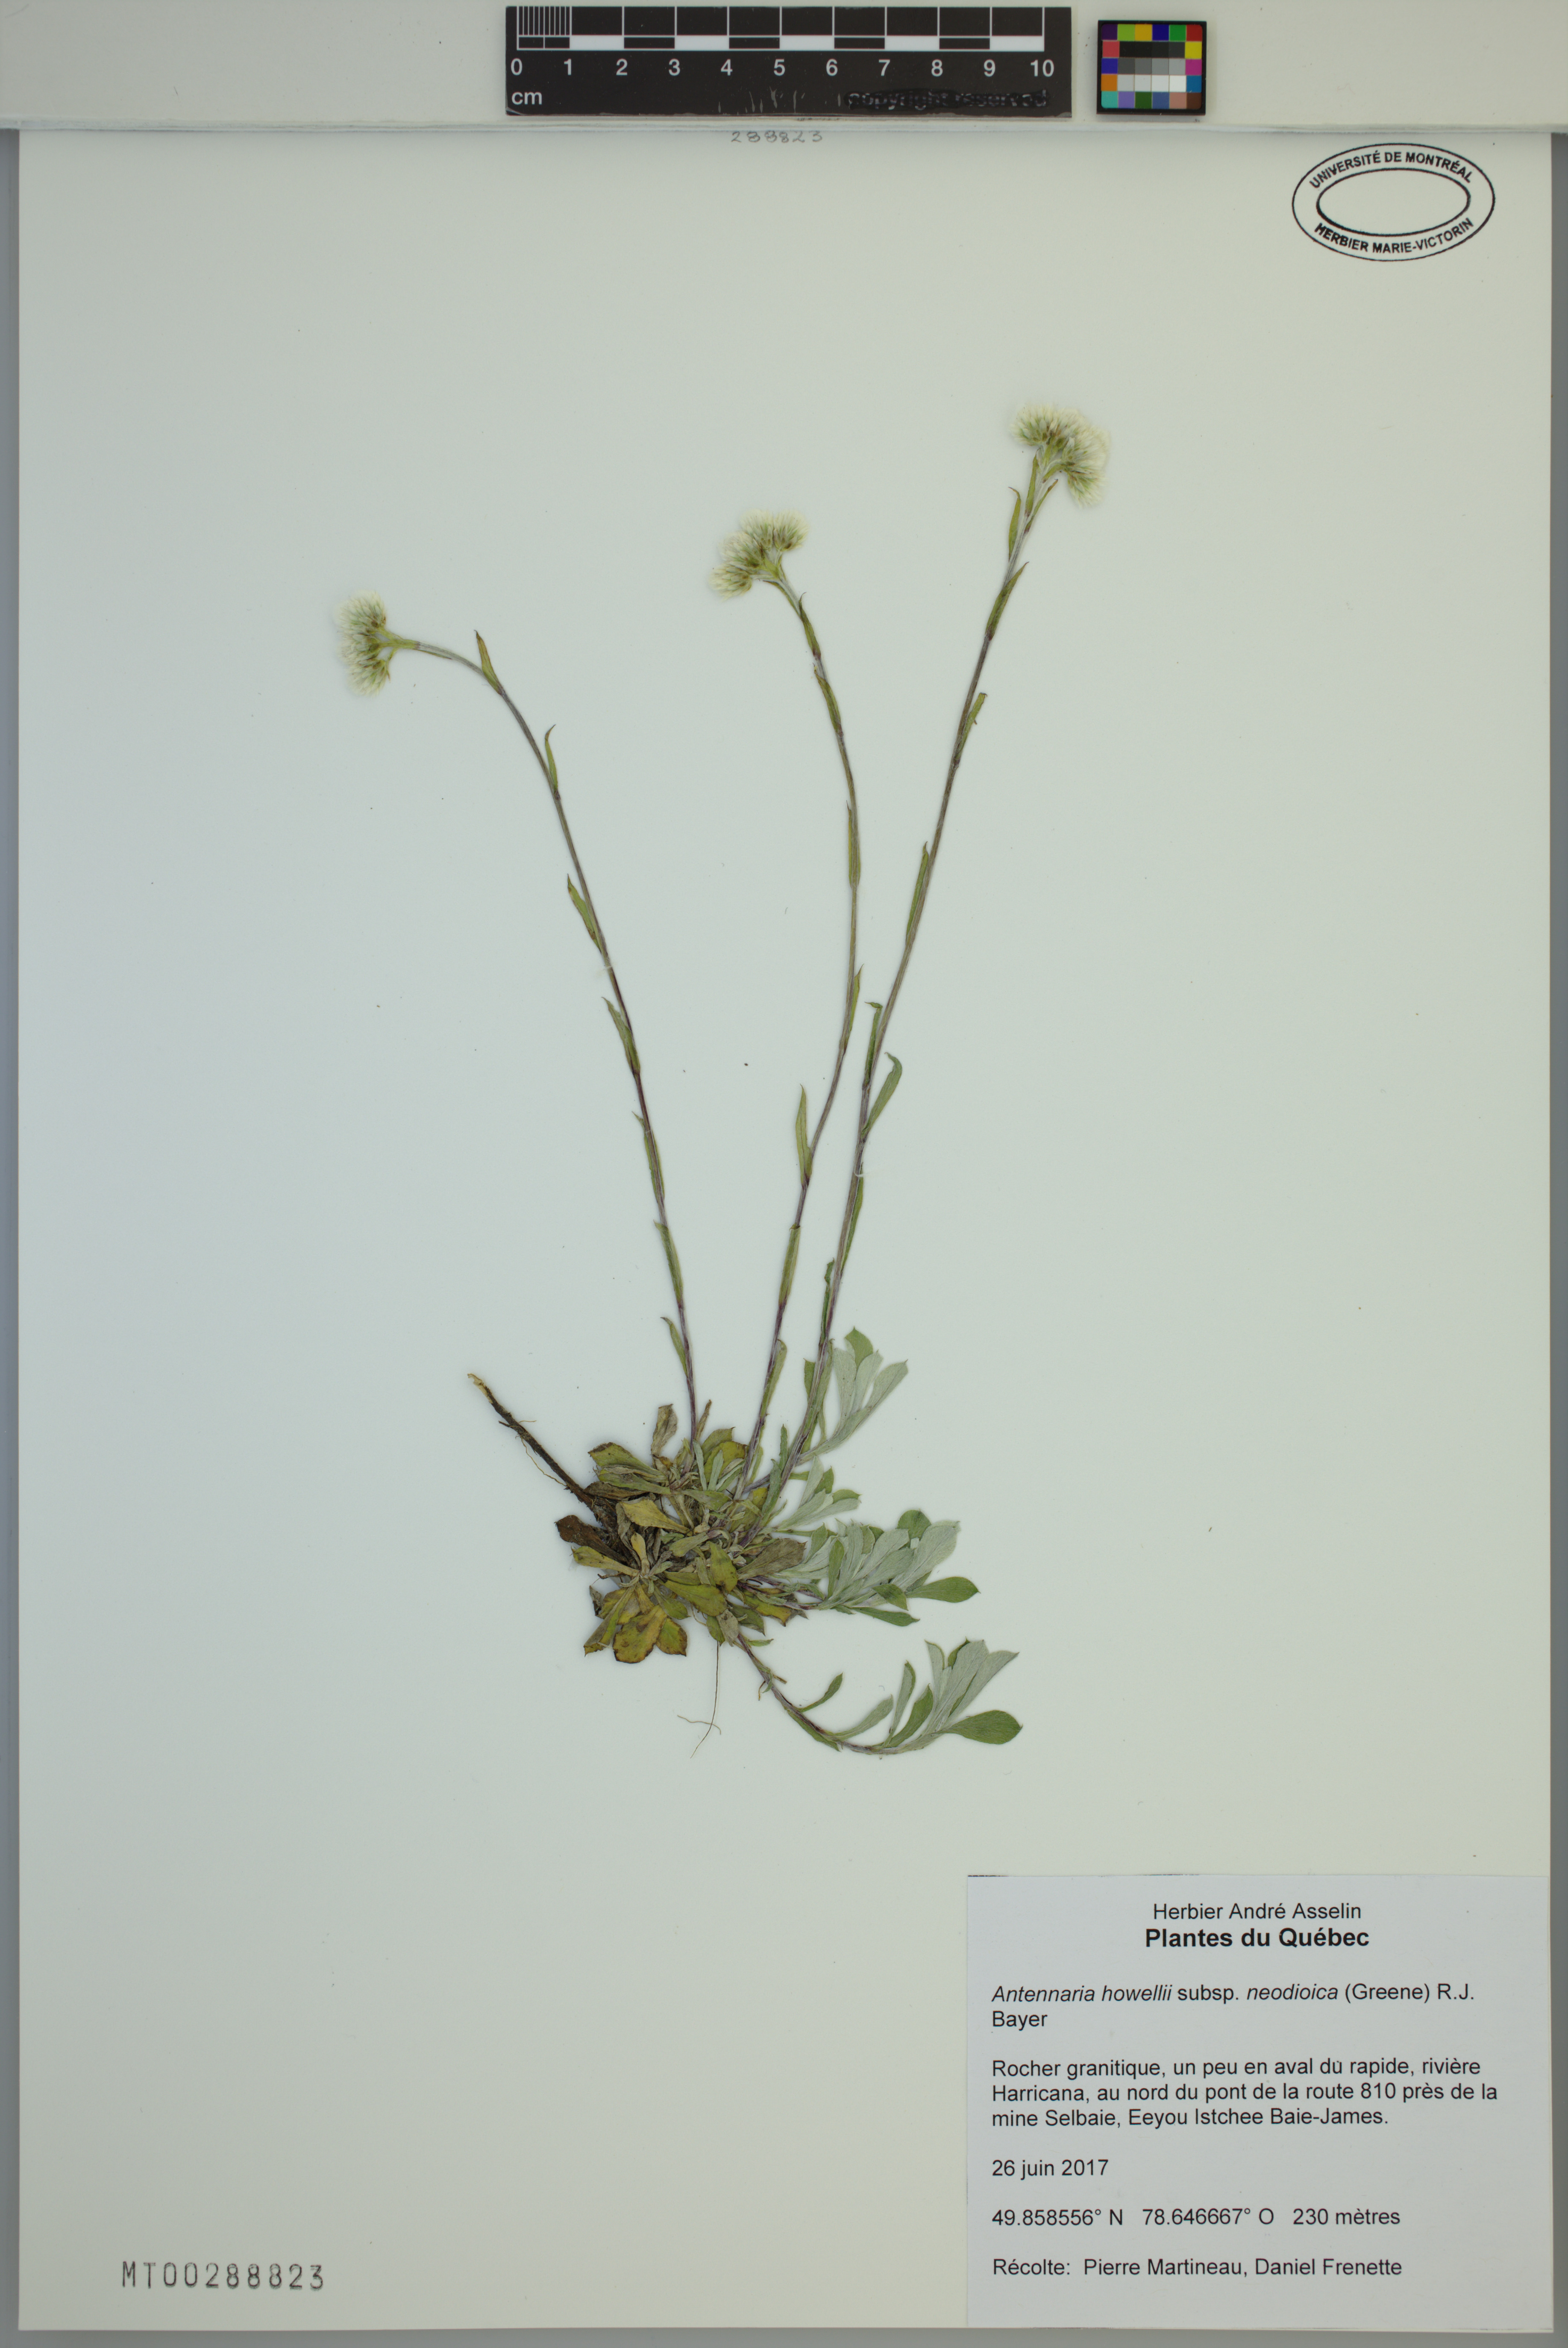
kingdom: Plantae
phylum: Tracheophyta
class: Magnoliopsida
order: Asterales
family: Asteraceae
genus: Antennaria
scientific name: Antennaria howellii
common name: Howell's pussytoes
